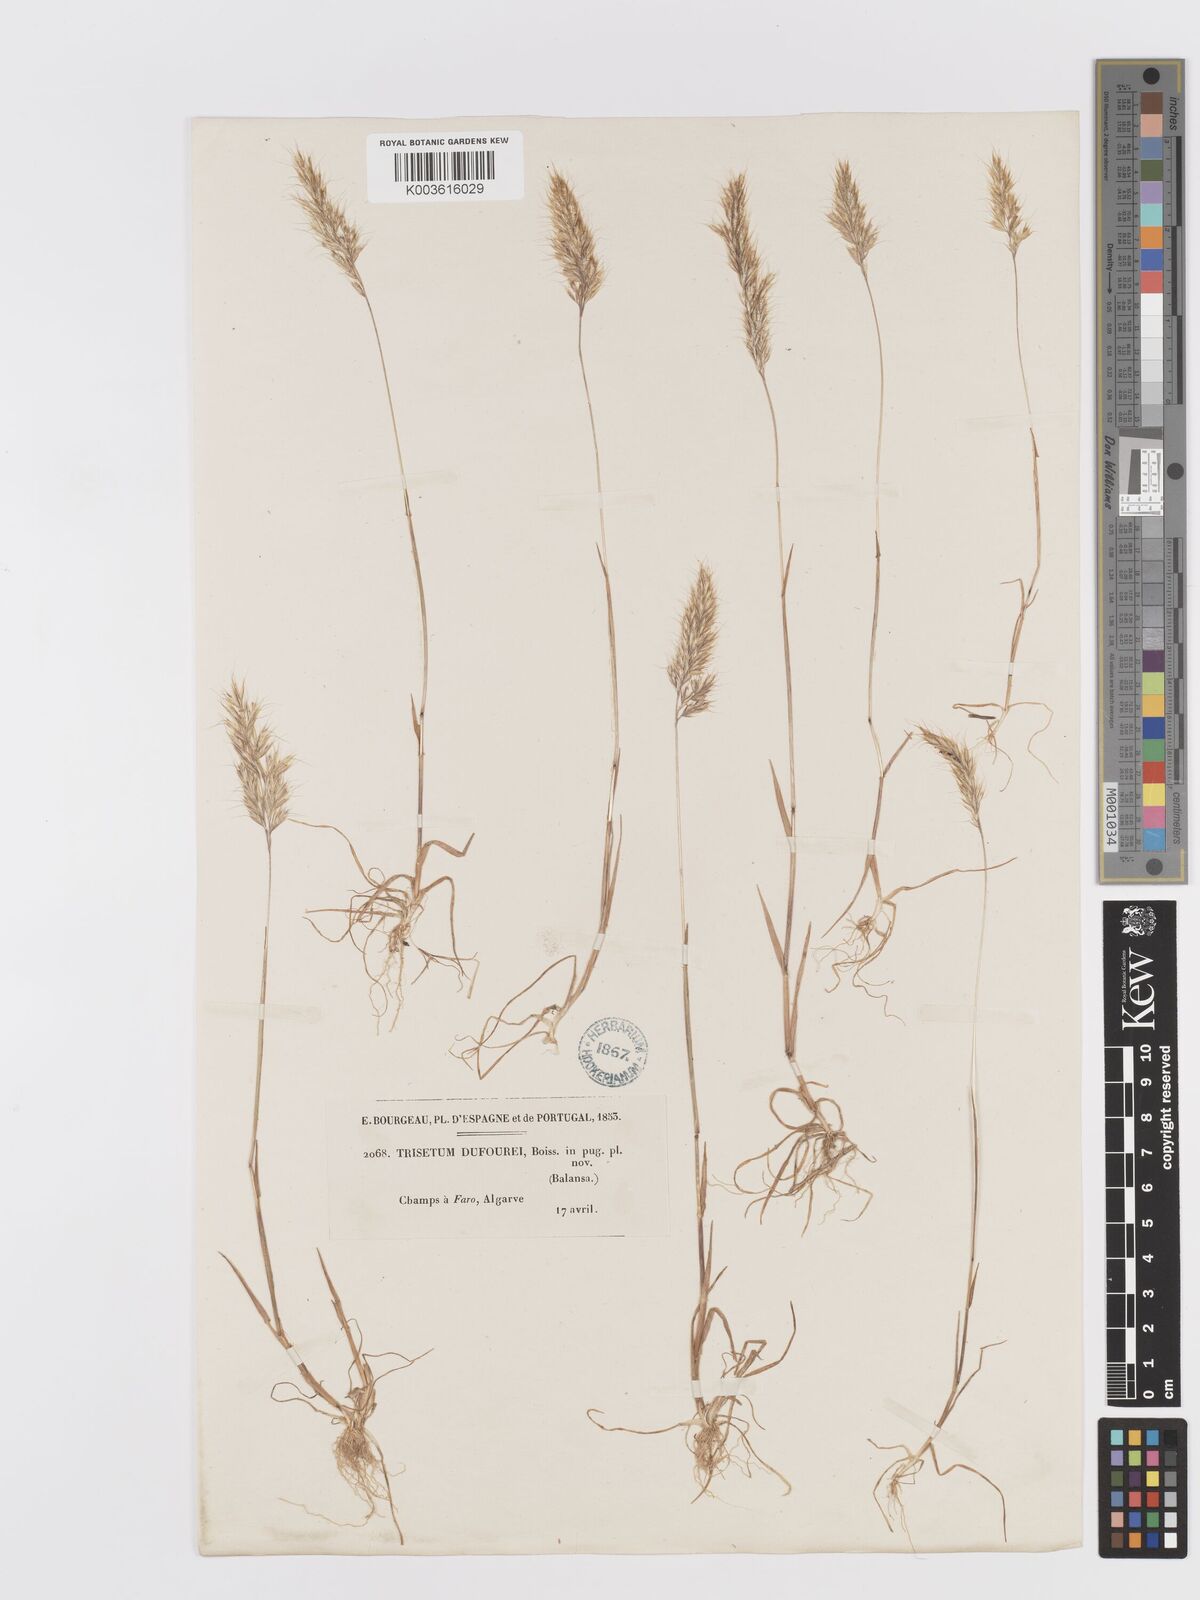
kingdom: Plantae
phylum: Tracheophyta
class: Liliopsida
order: Poales
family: Poaceae
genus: Trisetaria
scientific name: Trisetaria dufourei
